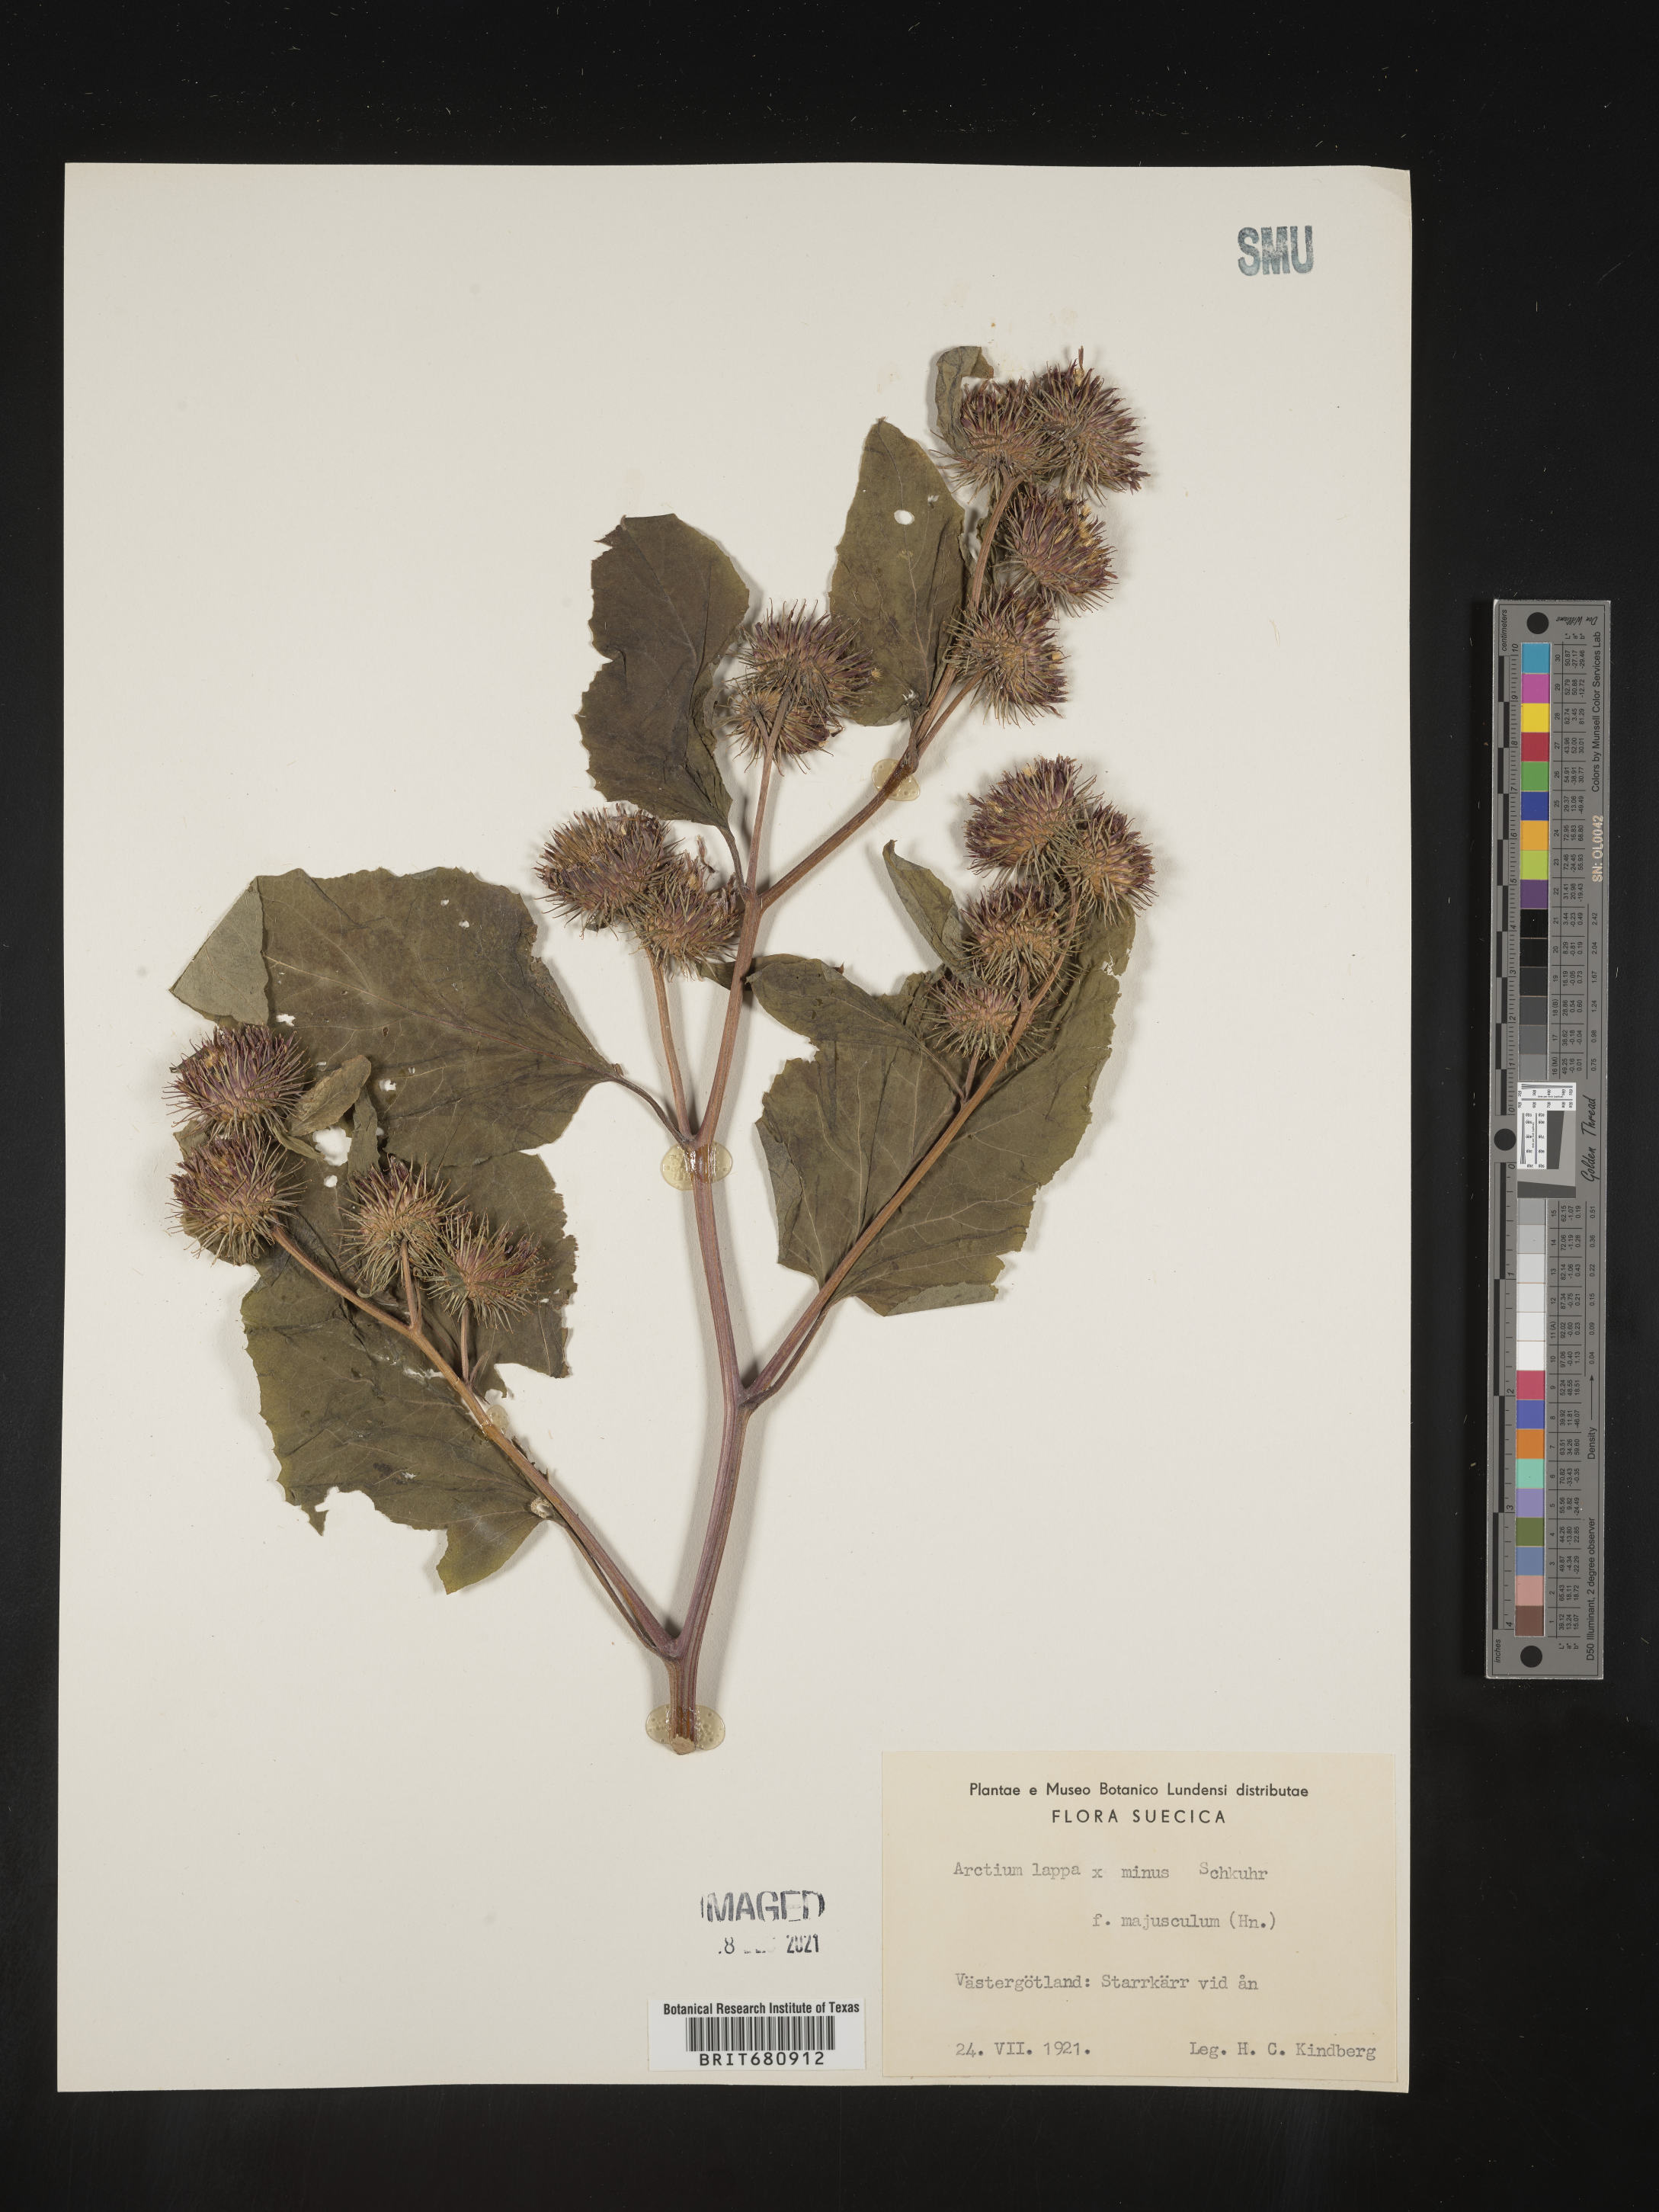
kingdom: Plantae
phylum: Tracheophyta
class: Magnoliopsida
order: Asterales
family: Asteraceae
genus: Arctium
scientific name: Arctium lappa
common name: Greater burdock
